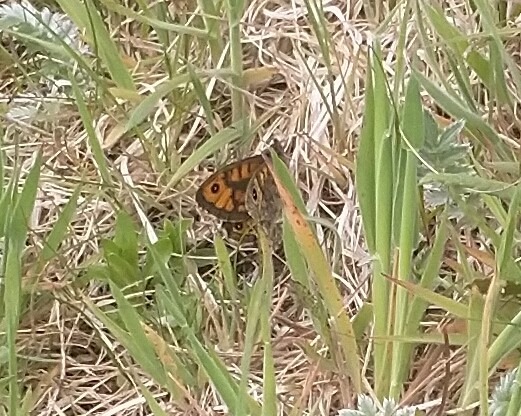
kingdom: Animalia
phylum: Arthropoda
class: Insecta
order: Lepidoptera
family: Nymphalidae
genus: Pararge
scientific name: Pararge Lasiommata megera
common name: Vejrandøje
